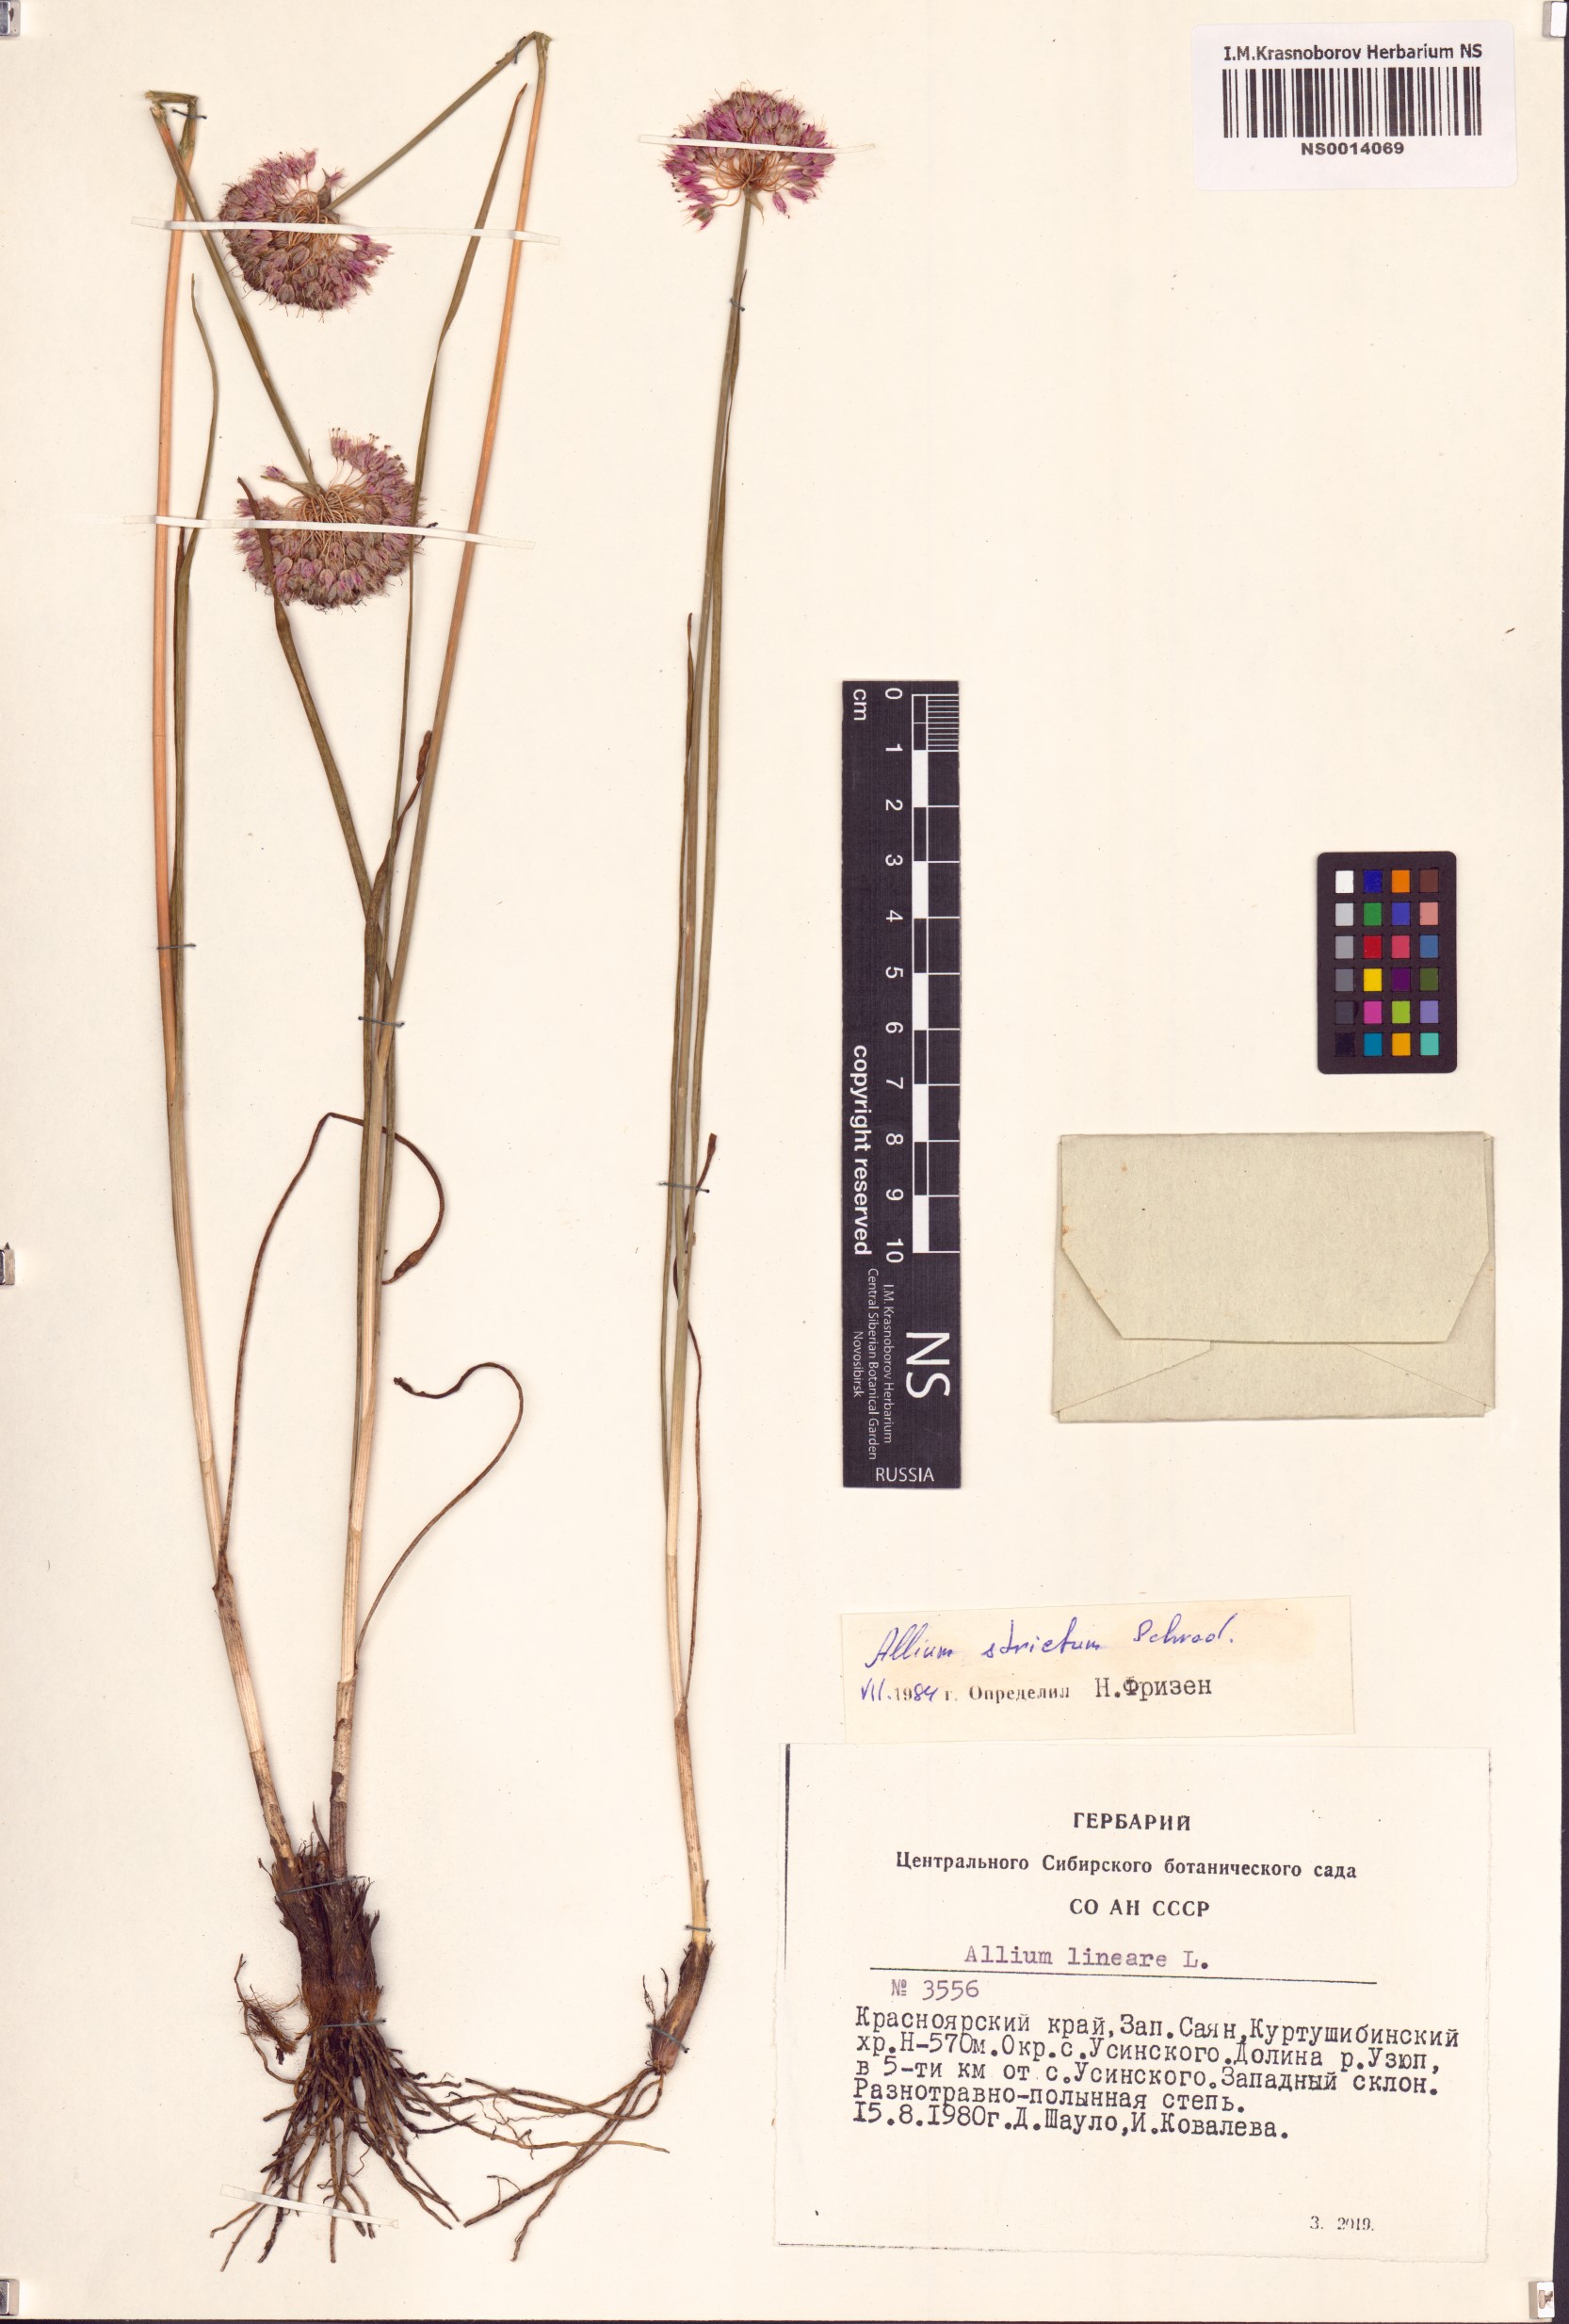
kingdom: Plantae
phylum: Tracheophyta
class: Liliopsida
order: Asparagales
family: Amaryllidaceae
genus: Allium
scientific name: Allium strictum
